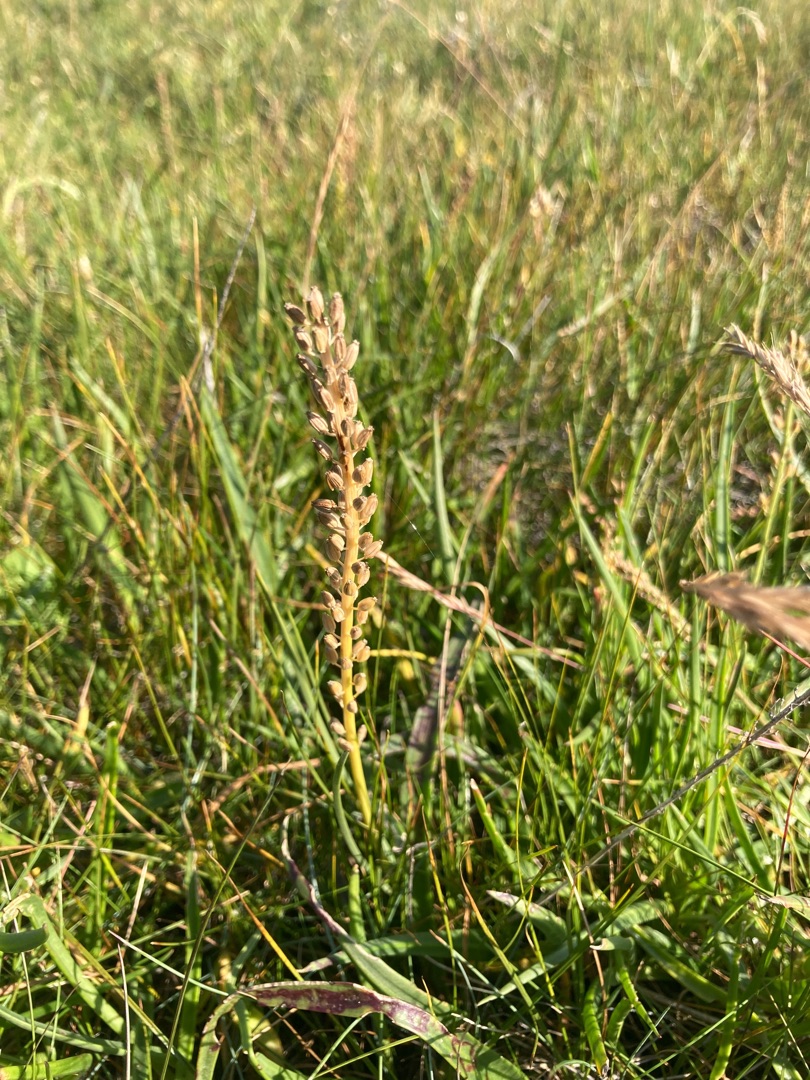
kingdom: Plantae
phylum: Tracheophyta
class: Liliopsida
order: Alismatales
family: Juncaginaceae
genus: Triglochin
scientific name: Triglochin maritima
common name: Strand-trehage
